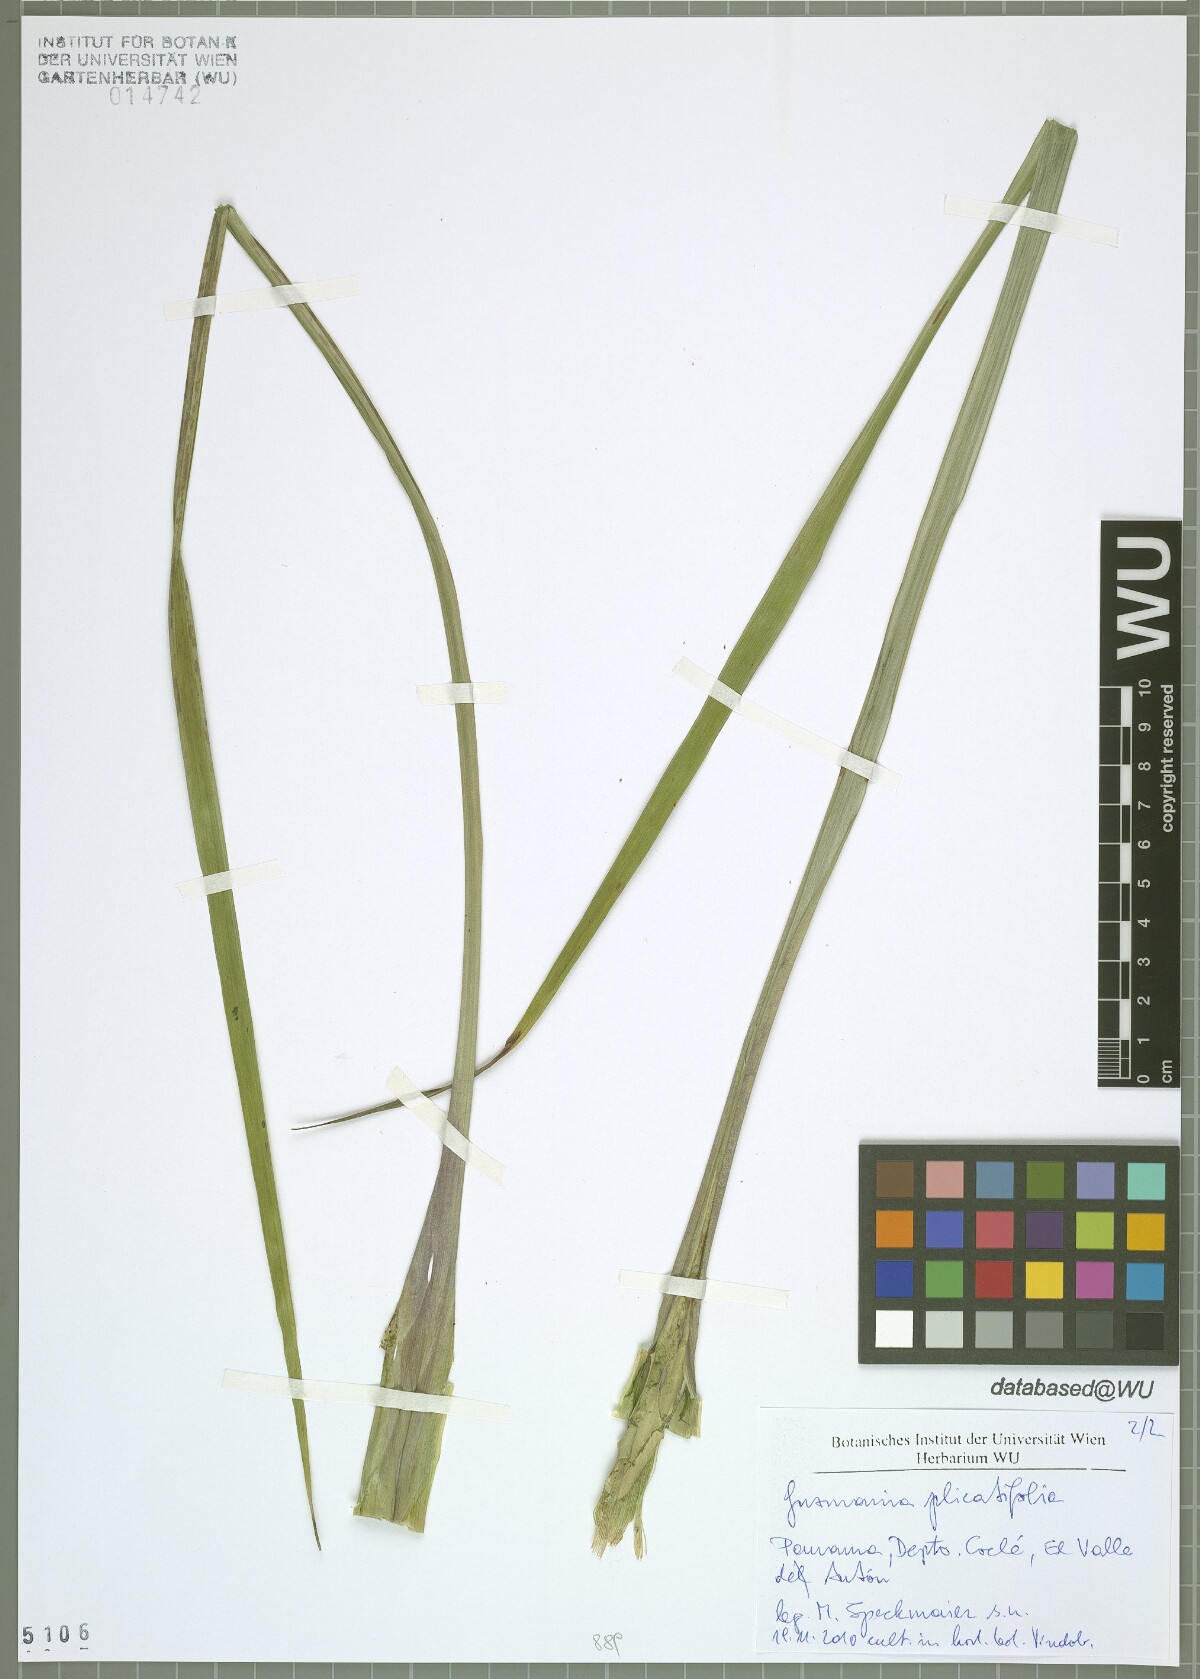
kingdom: Plantae
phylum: Tracheophyta
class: Liliopsida
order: Poales
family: Bromeliaceae
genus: Guzmania
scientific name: Guzmania plicatifolia
